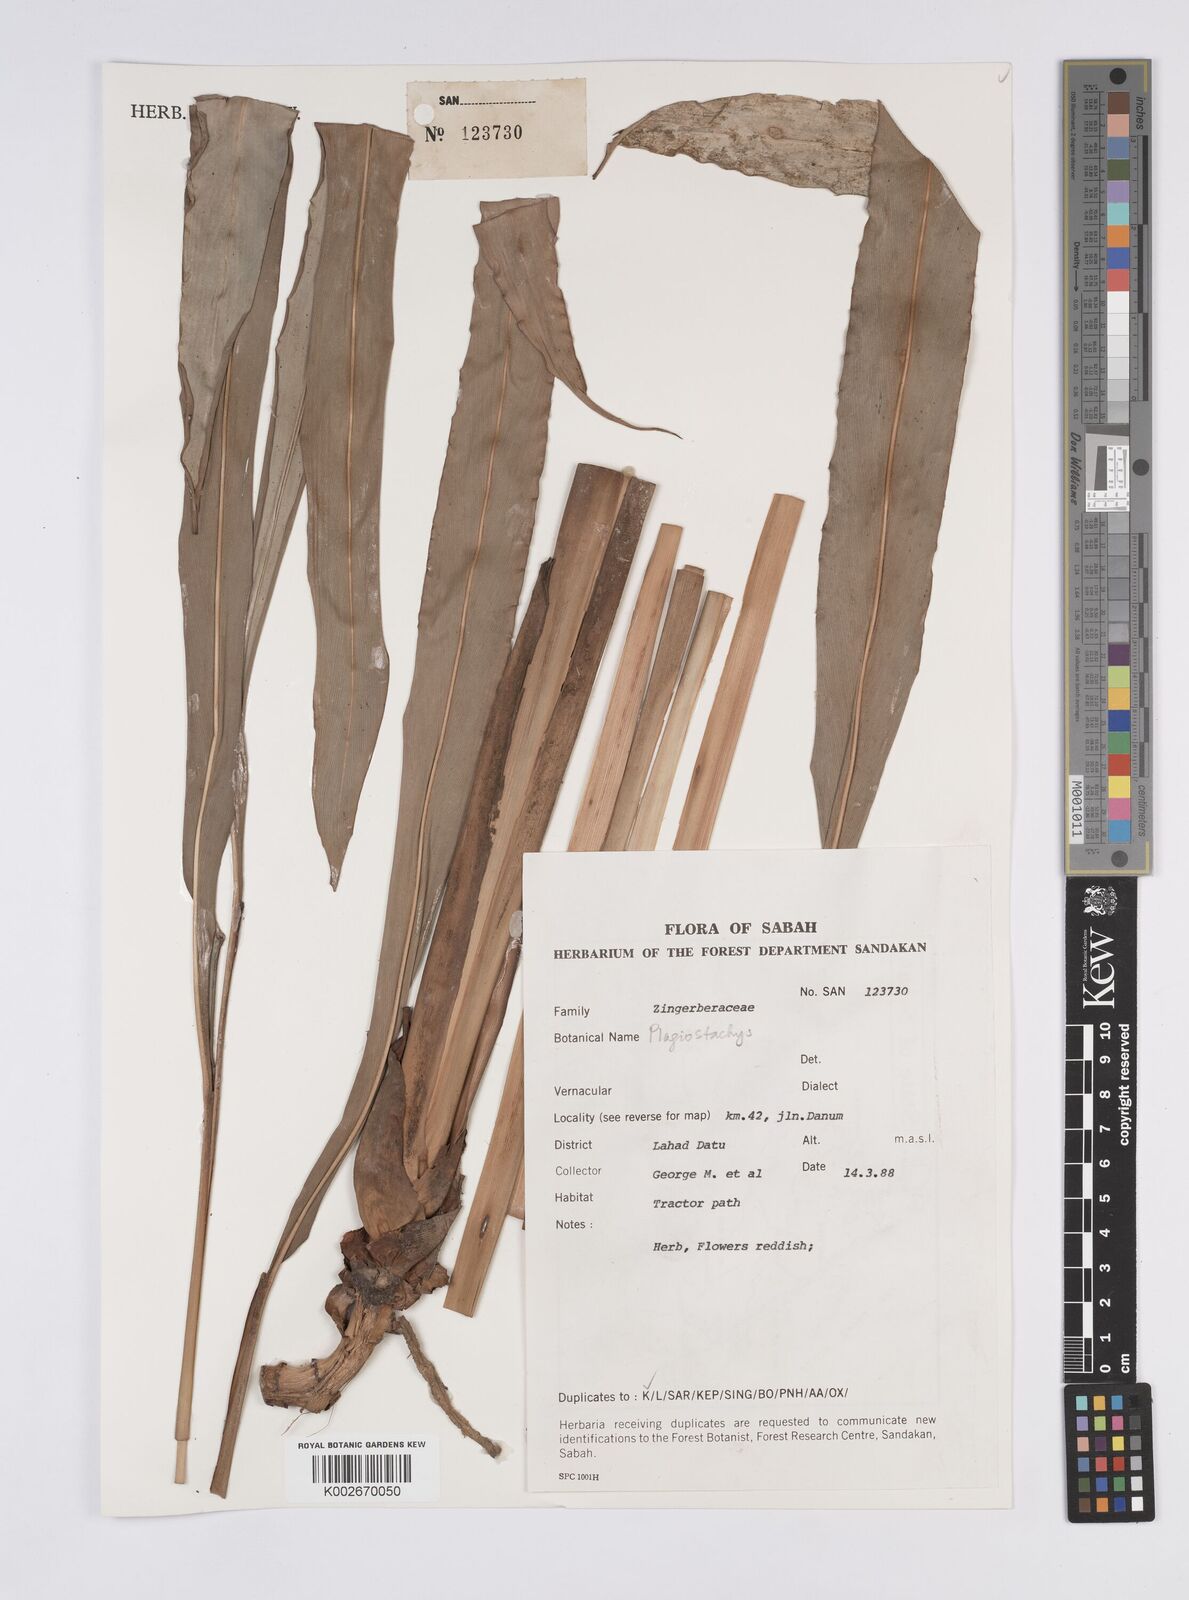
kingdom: Plantae
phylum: Tracheophyta
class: Liliopsida
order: Zingiberales
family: Zingiberaceae
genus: Plagiostachys
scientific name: Plagiostachys
